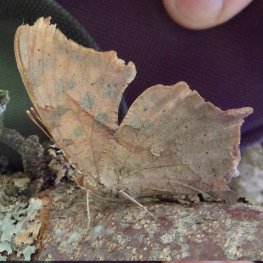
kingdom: Animalia
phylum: Arthropoda
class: Insecta
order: Lepidoptera
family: Nymphalidae
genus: Polygonia
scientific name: Polygonia interrogationis
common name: Question Mark
